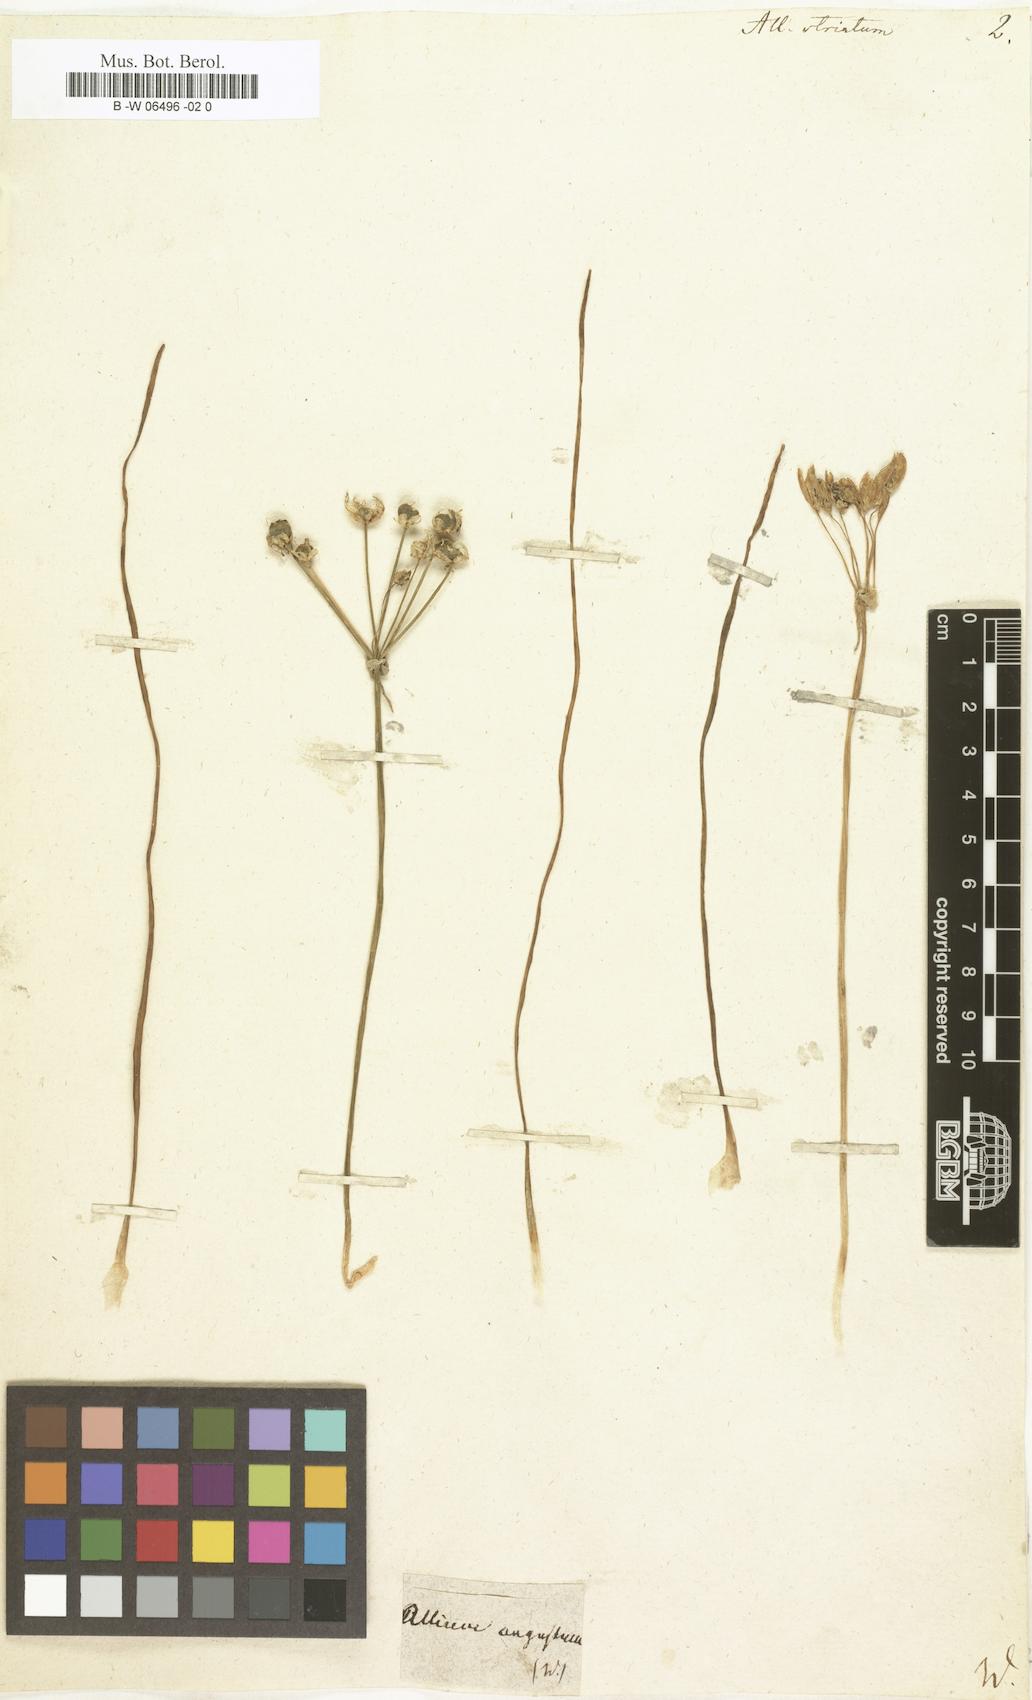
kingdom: Plantae
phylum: Tracheophyta
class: Liliopsida
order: Asparagales
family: Amaryllidaceae
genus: Nothoscordum
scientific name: Nothoscordum bivalve
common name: Crow-poison
